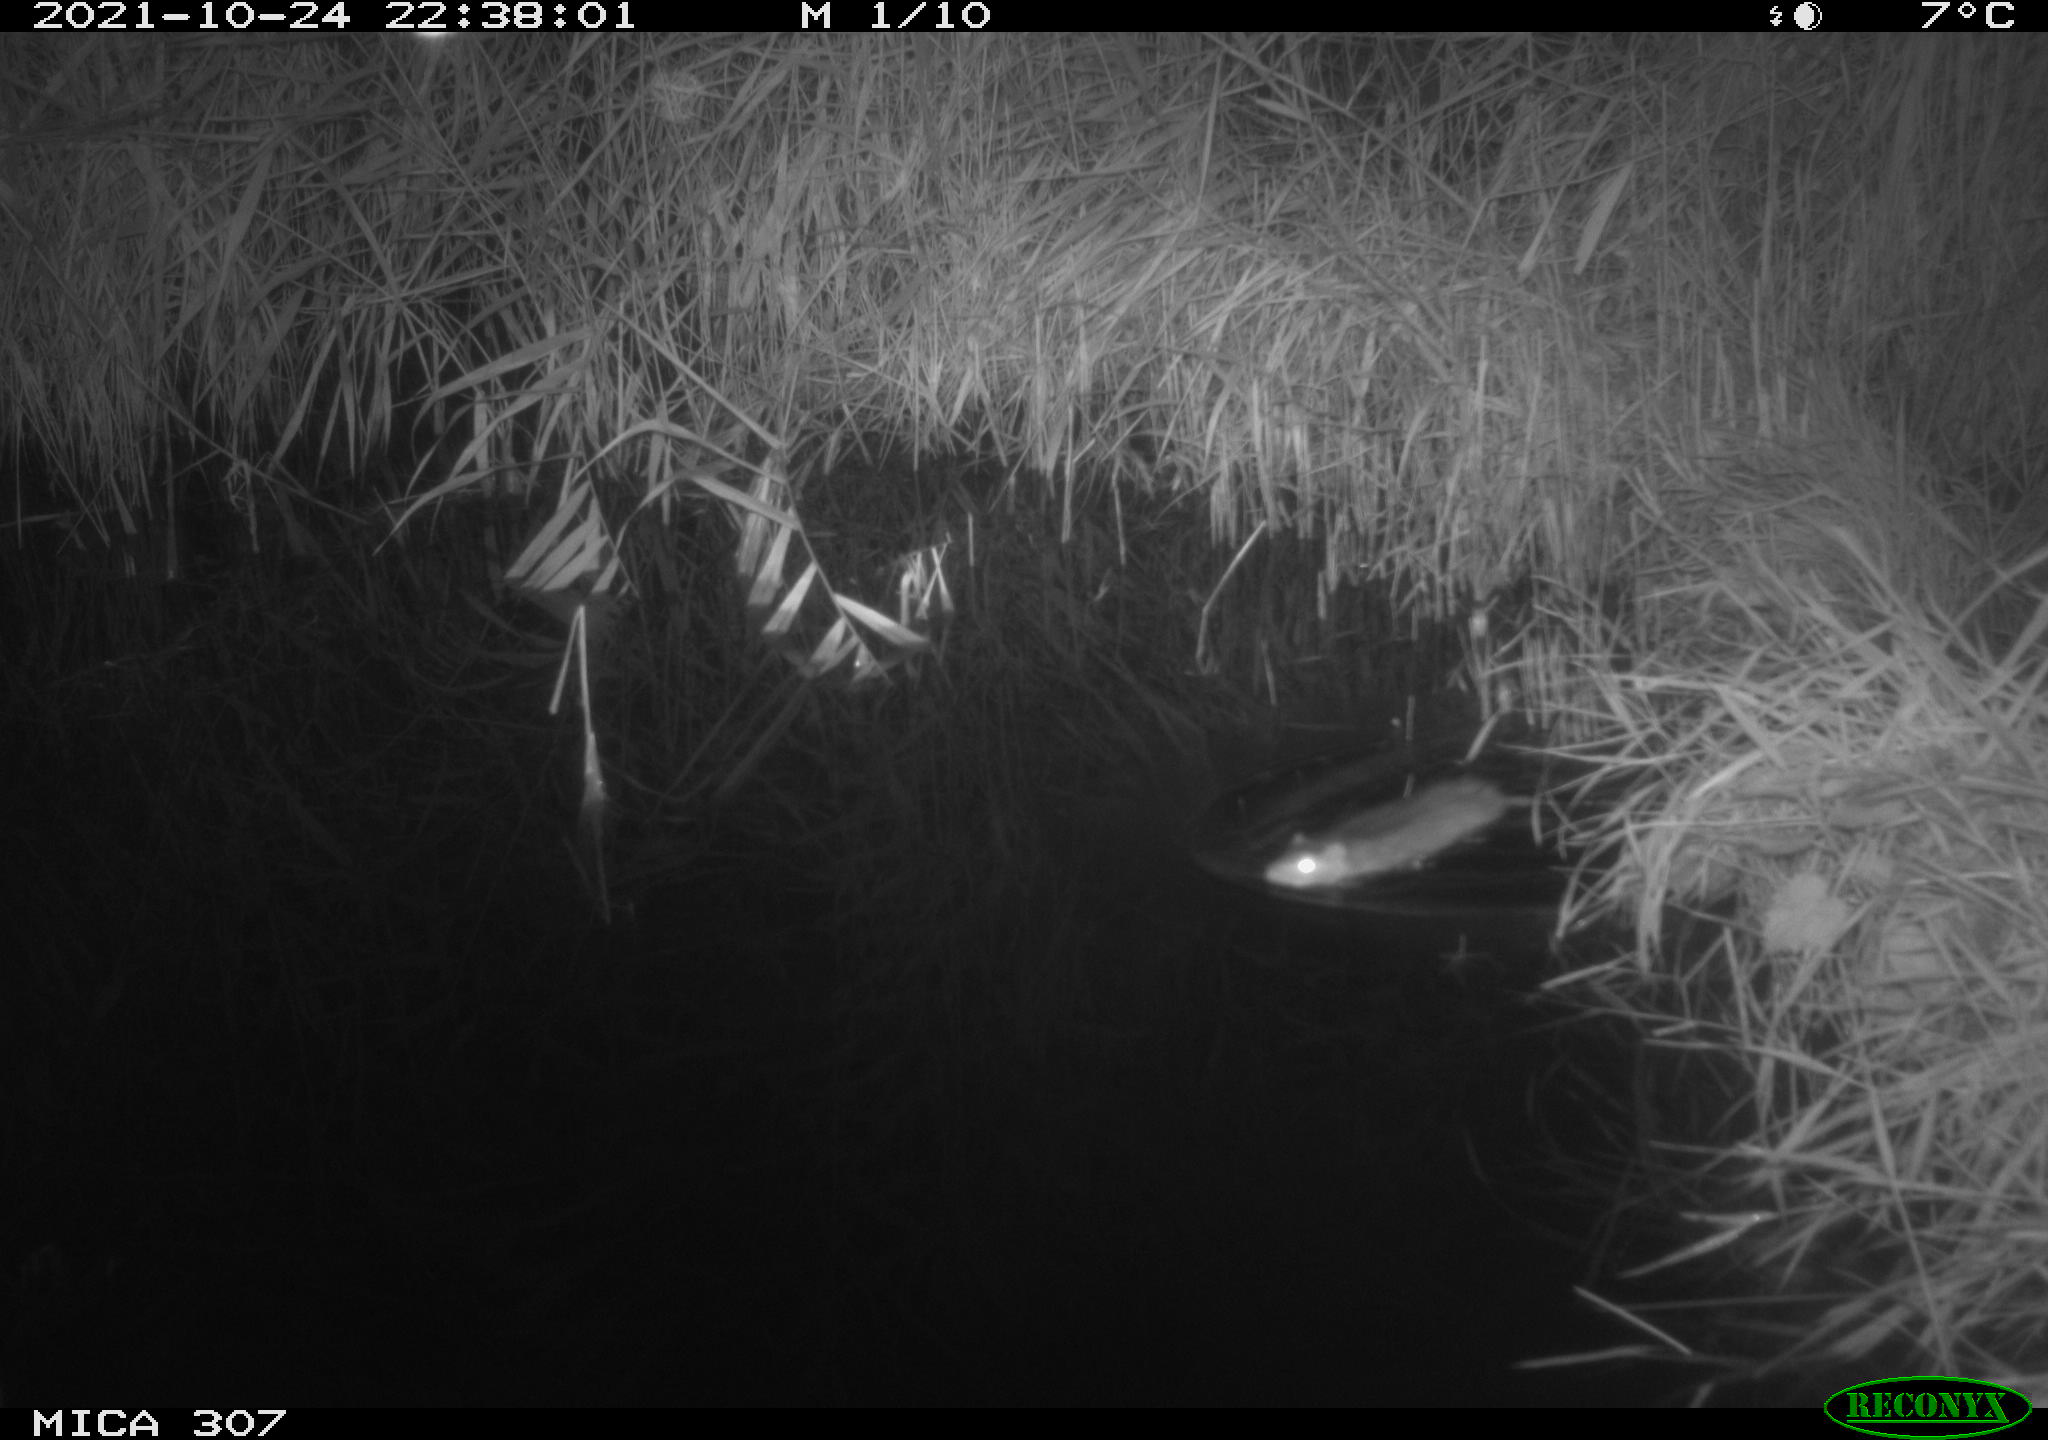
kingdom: Animalia
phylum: Chordata
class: Mammalia
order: Rodentia
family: Muridae
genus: Rattus
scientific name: Rattus norvegicus
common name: Brown rat
